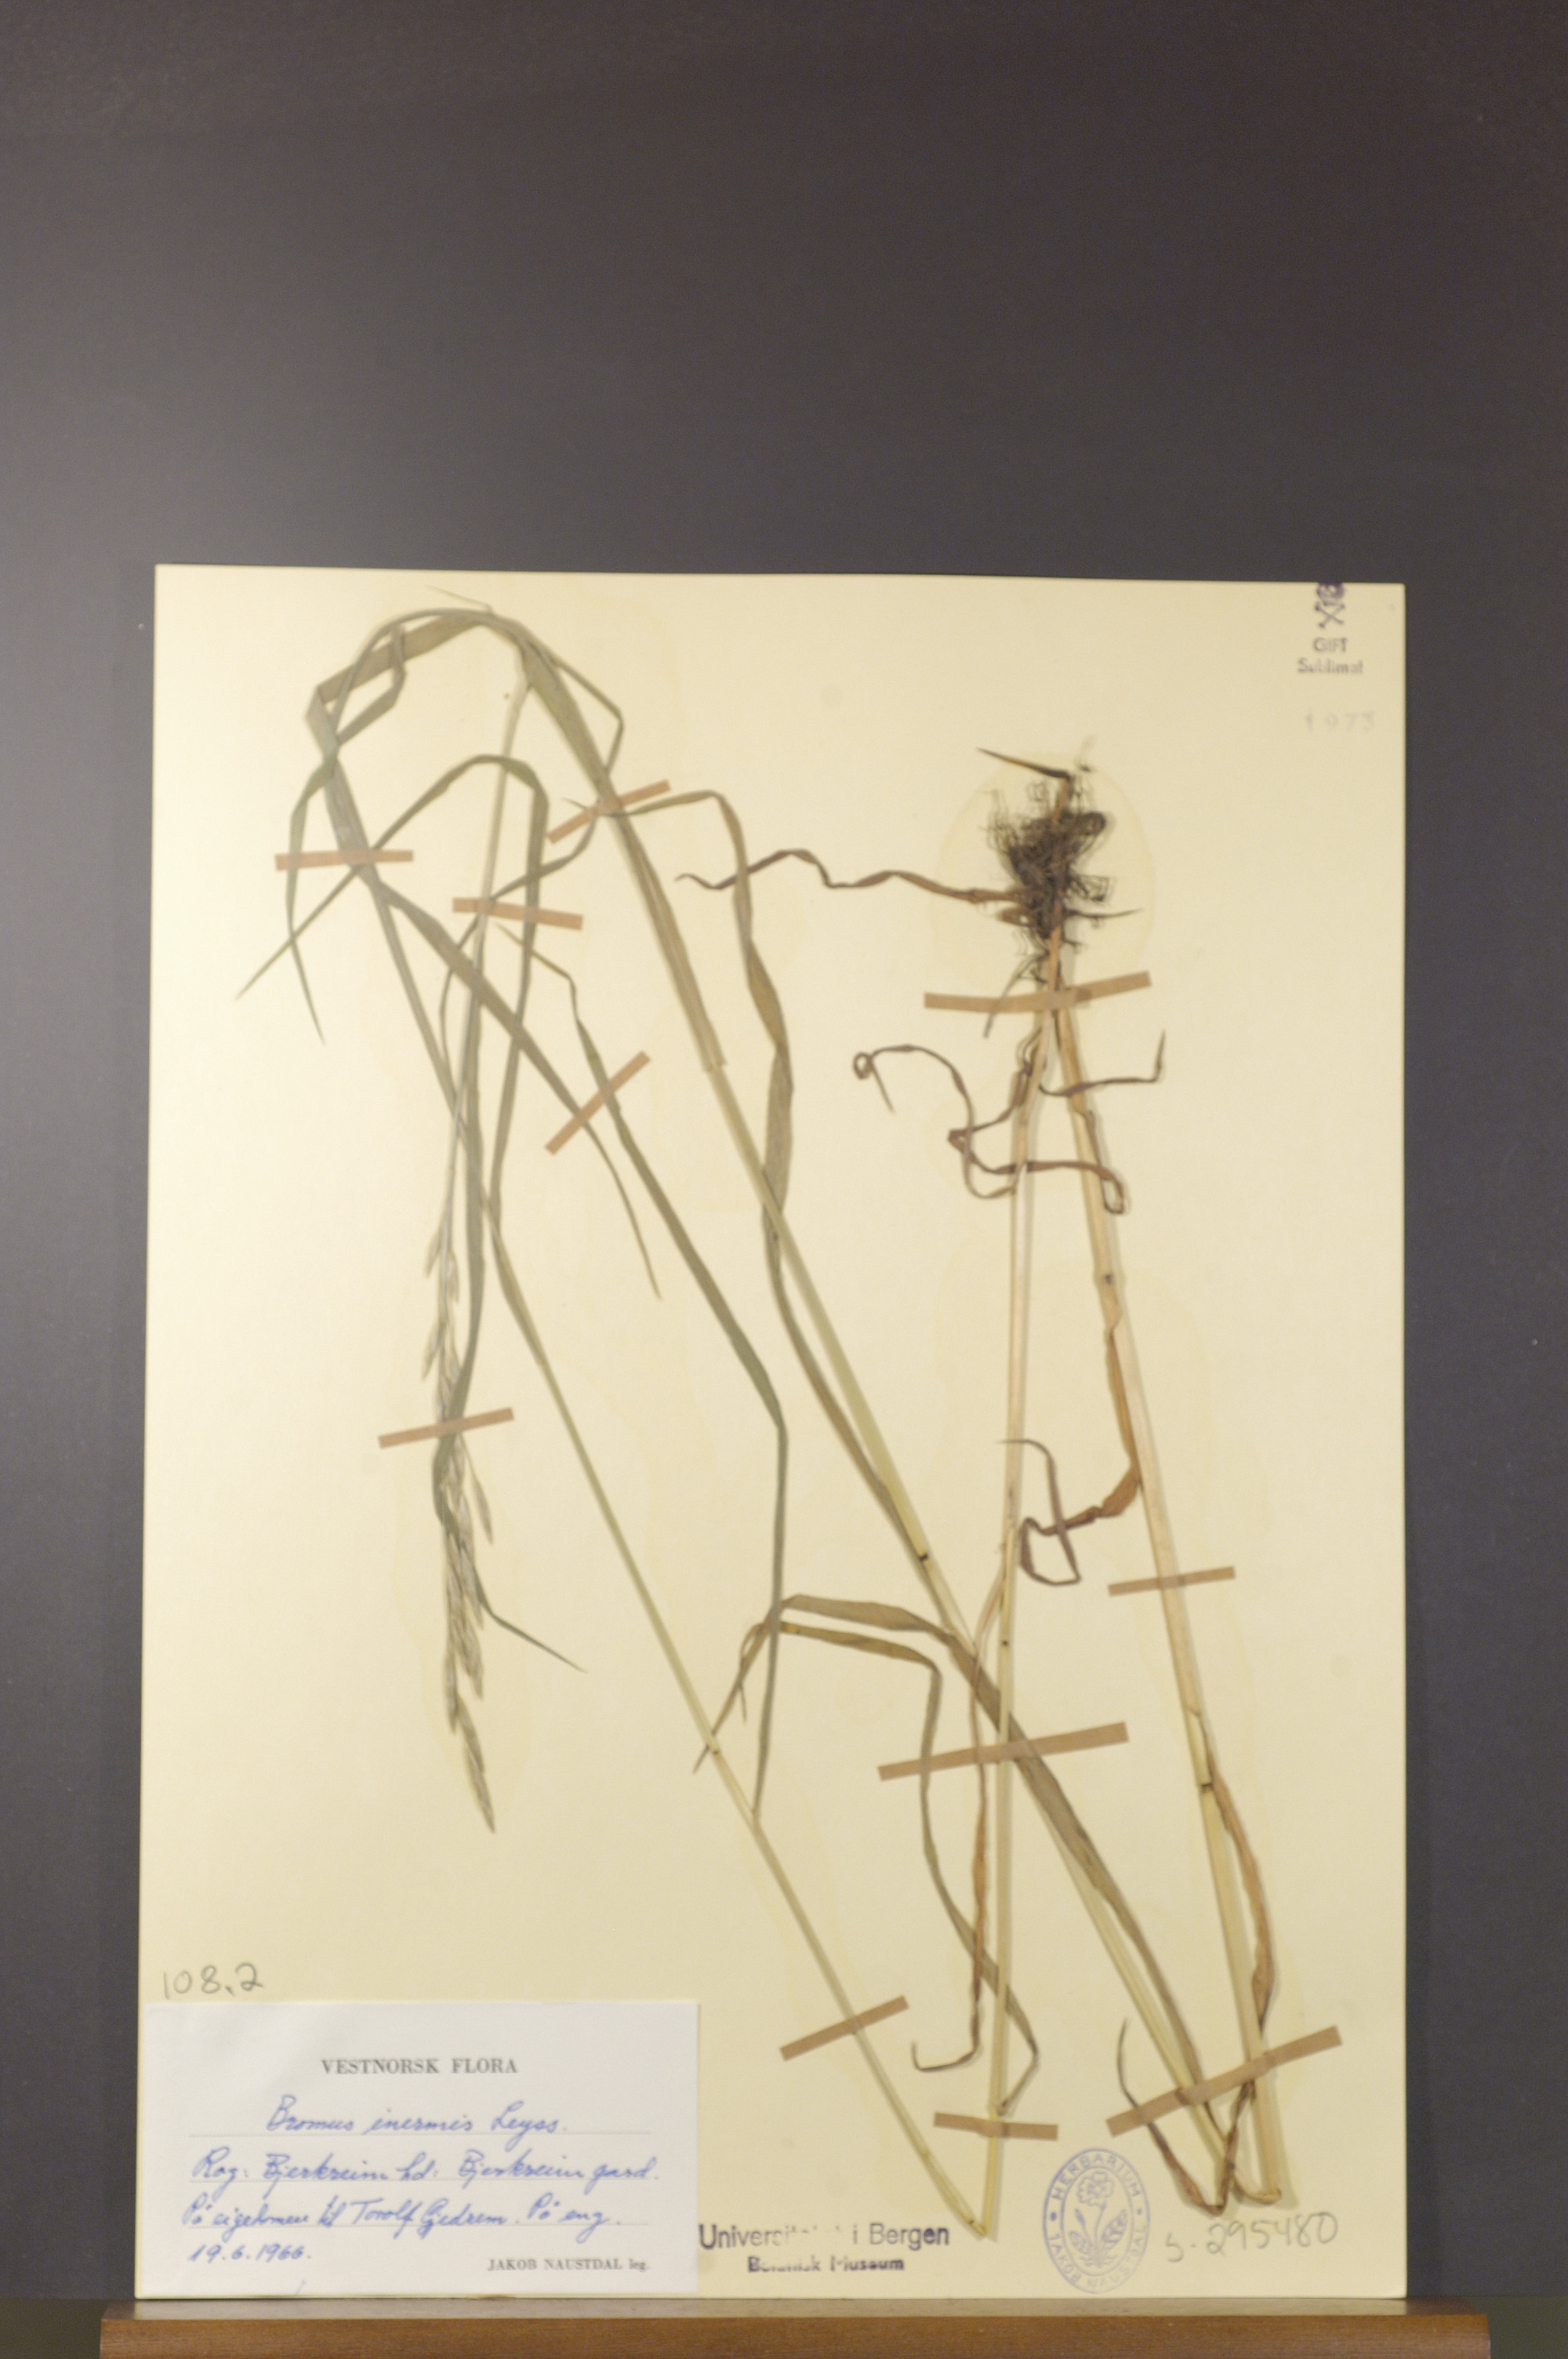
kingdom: Plantae
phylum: Tracheophyta
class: Liliopsida
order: Poales
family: Poaceae
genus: Bromus
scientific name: Bromus inermis
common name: Smooth brome
